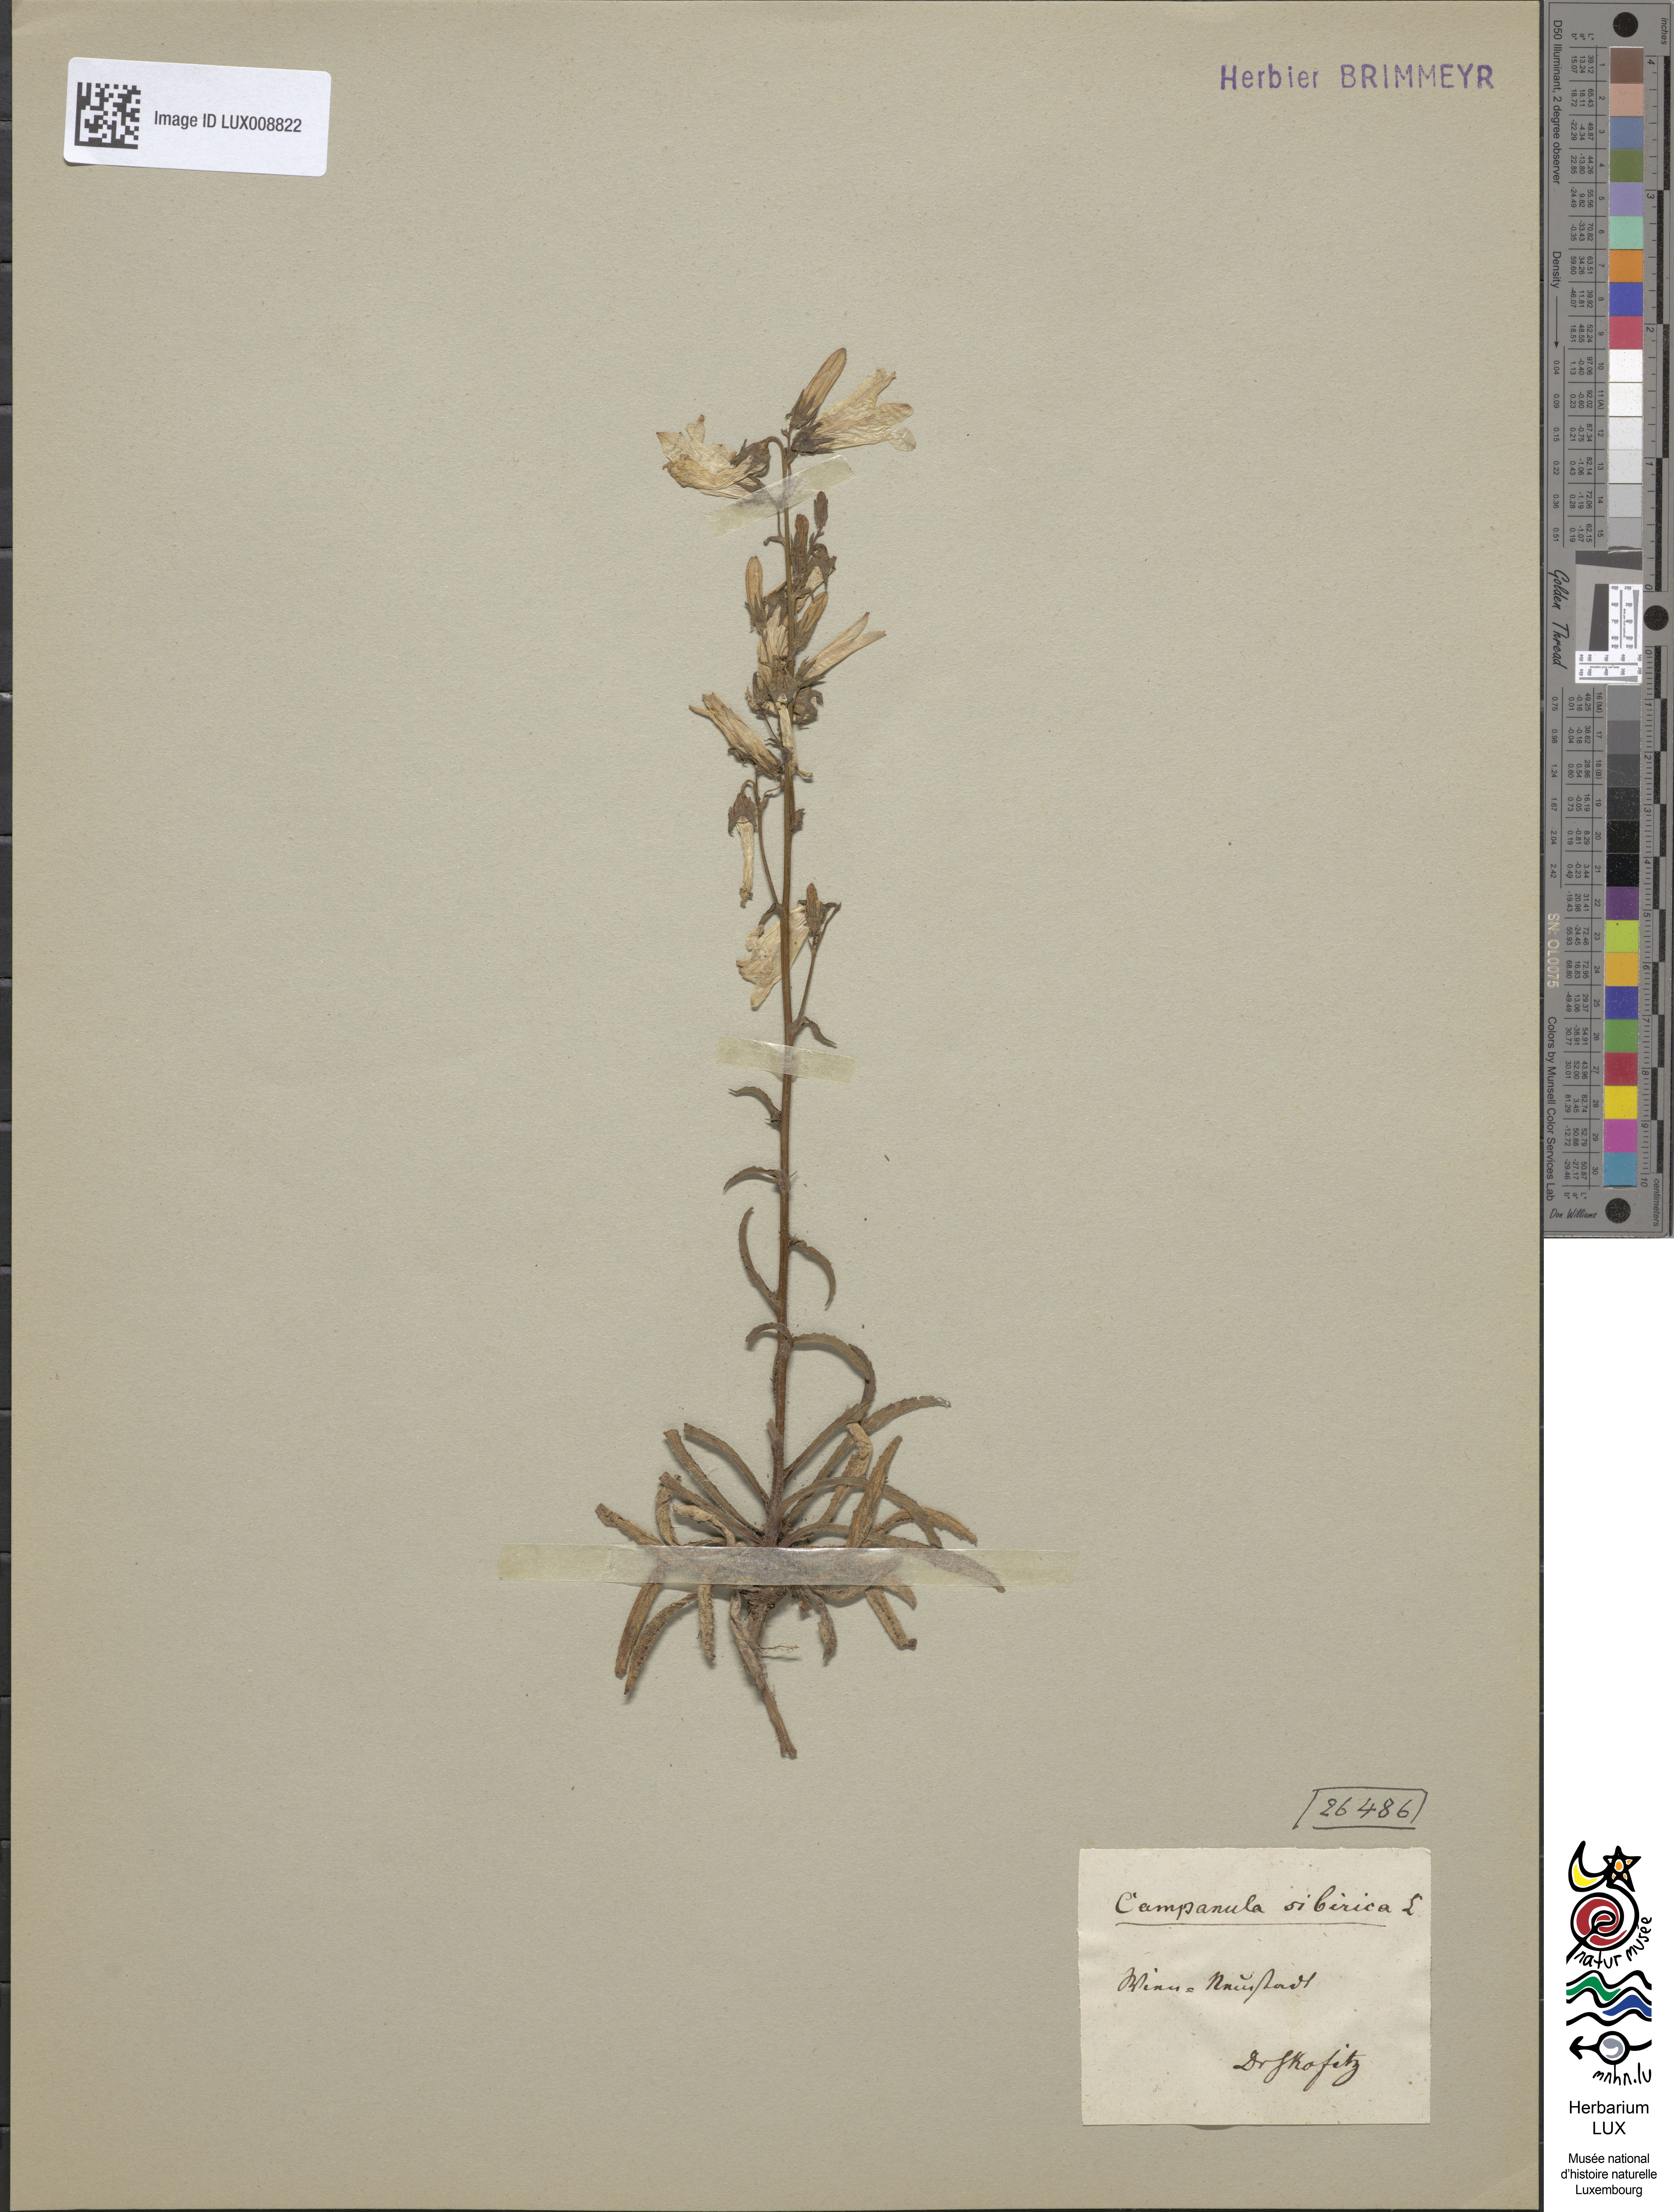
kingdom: Plantae
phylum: Tracheophyta
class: Magnoliopsida
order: Asterales
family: Campanulaceae
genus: Campanula
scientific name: Campanula sibirica
